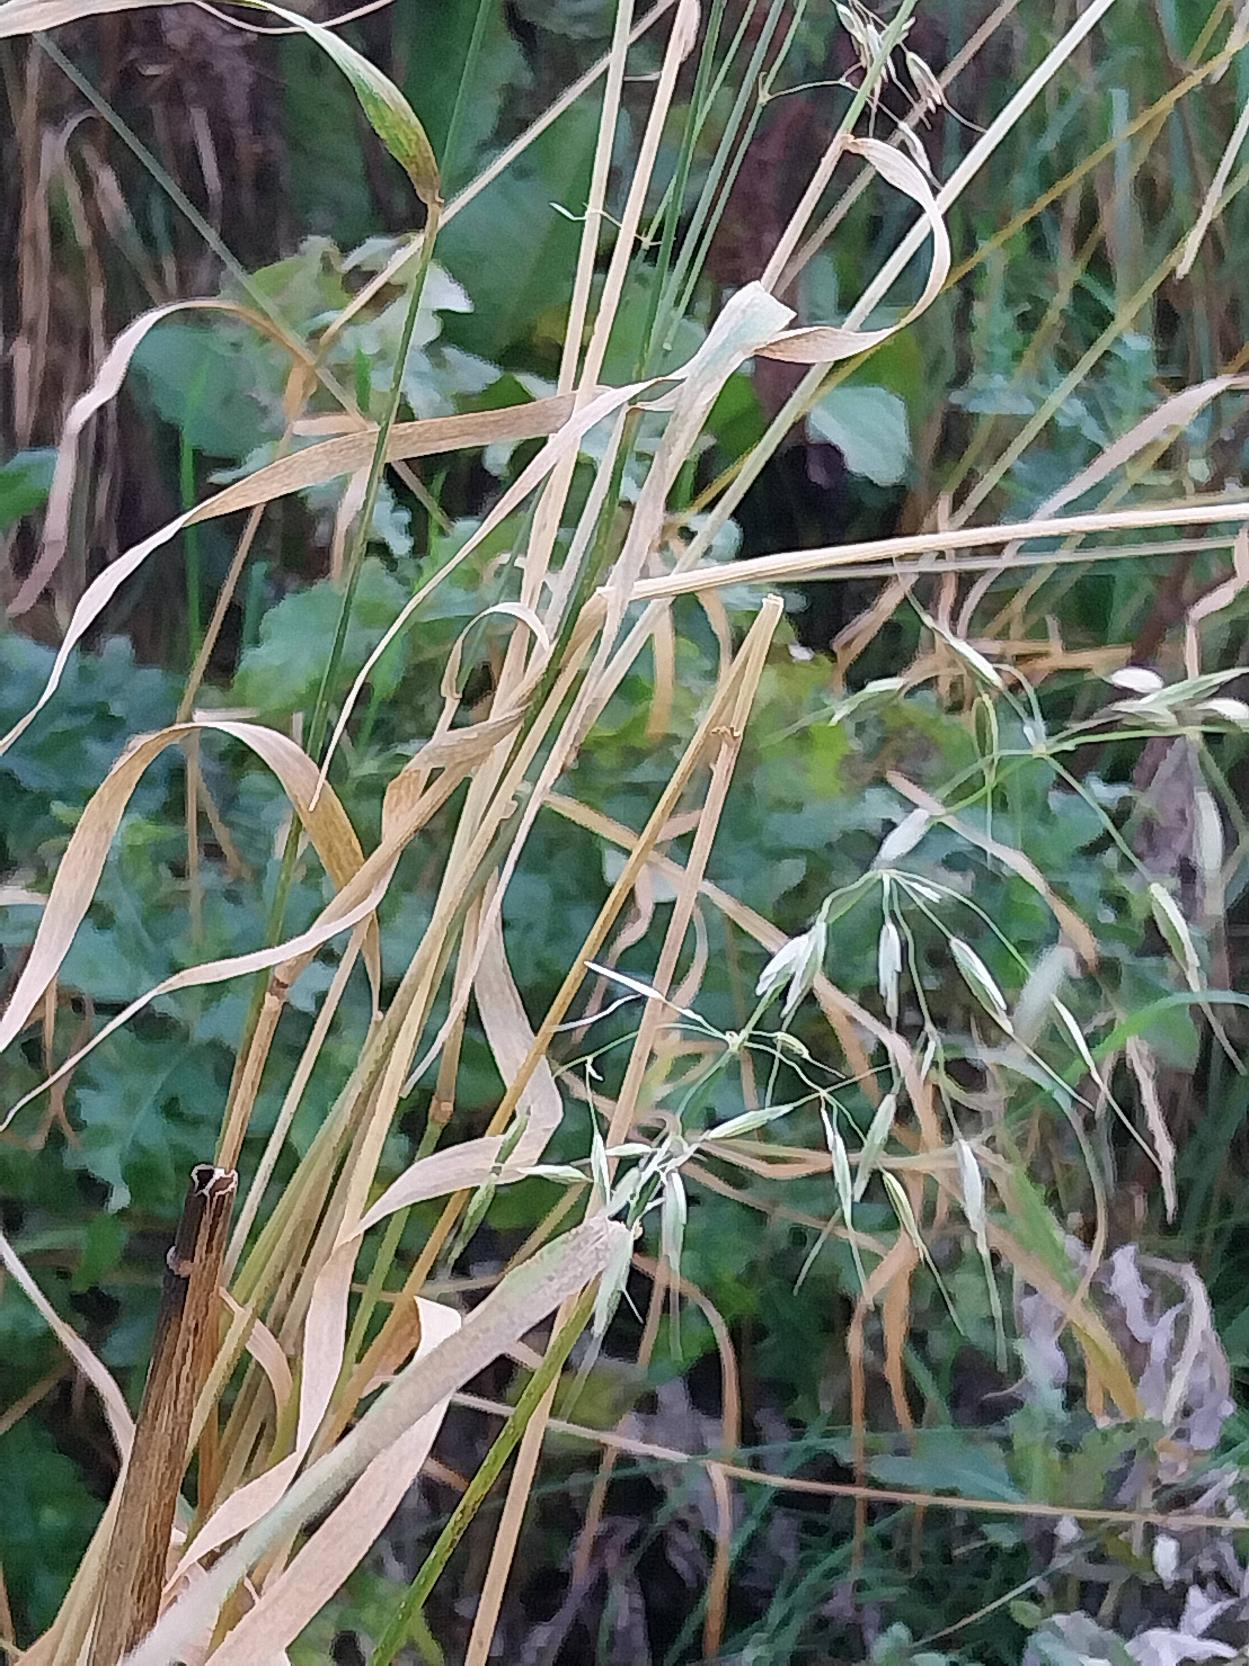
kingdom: Plantae
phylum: Tracheophyta
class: Liliopsida
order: Poales
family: Poaceae
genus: Arrhenatherum
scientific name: Arrhenatherum elatius
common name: Draphavre
